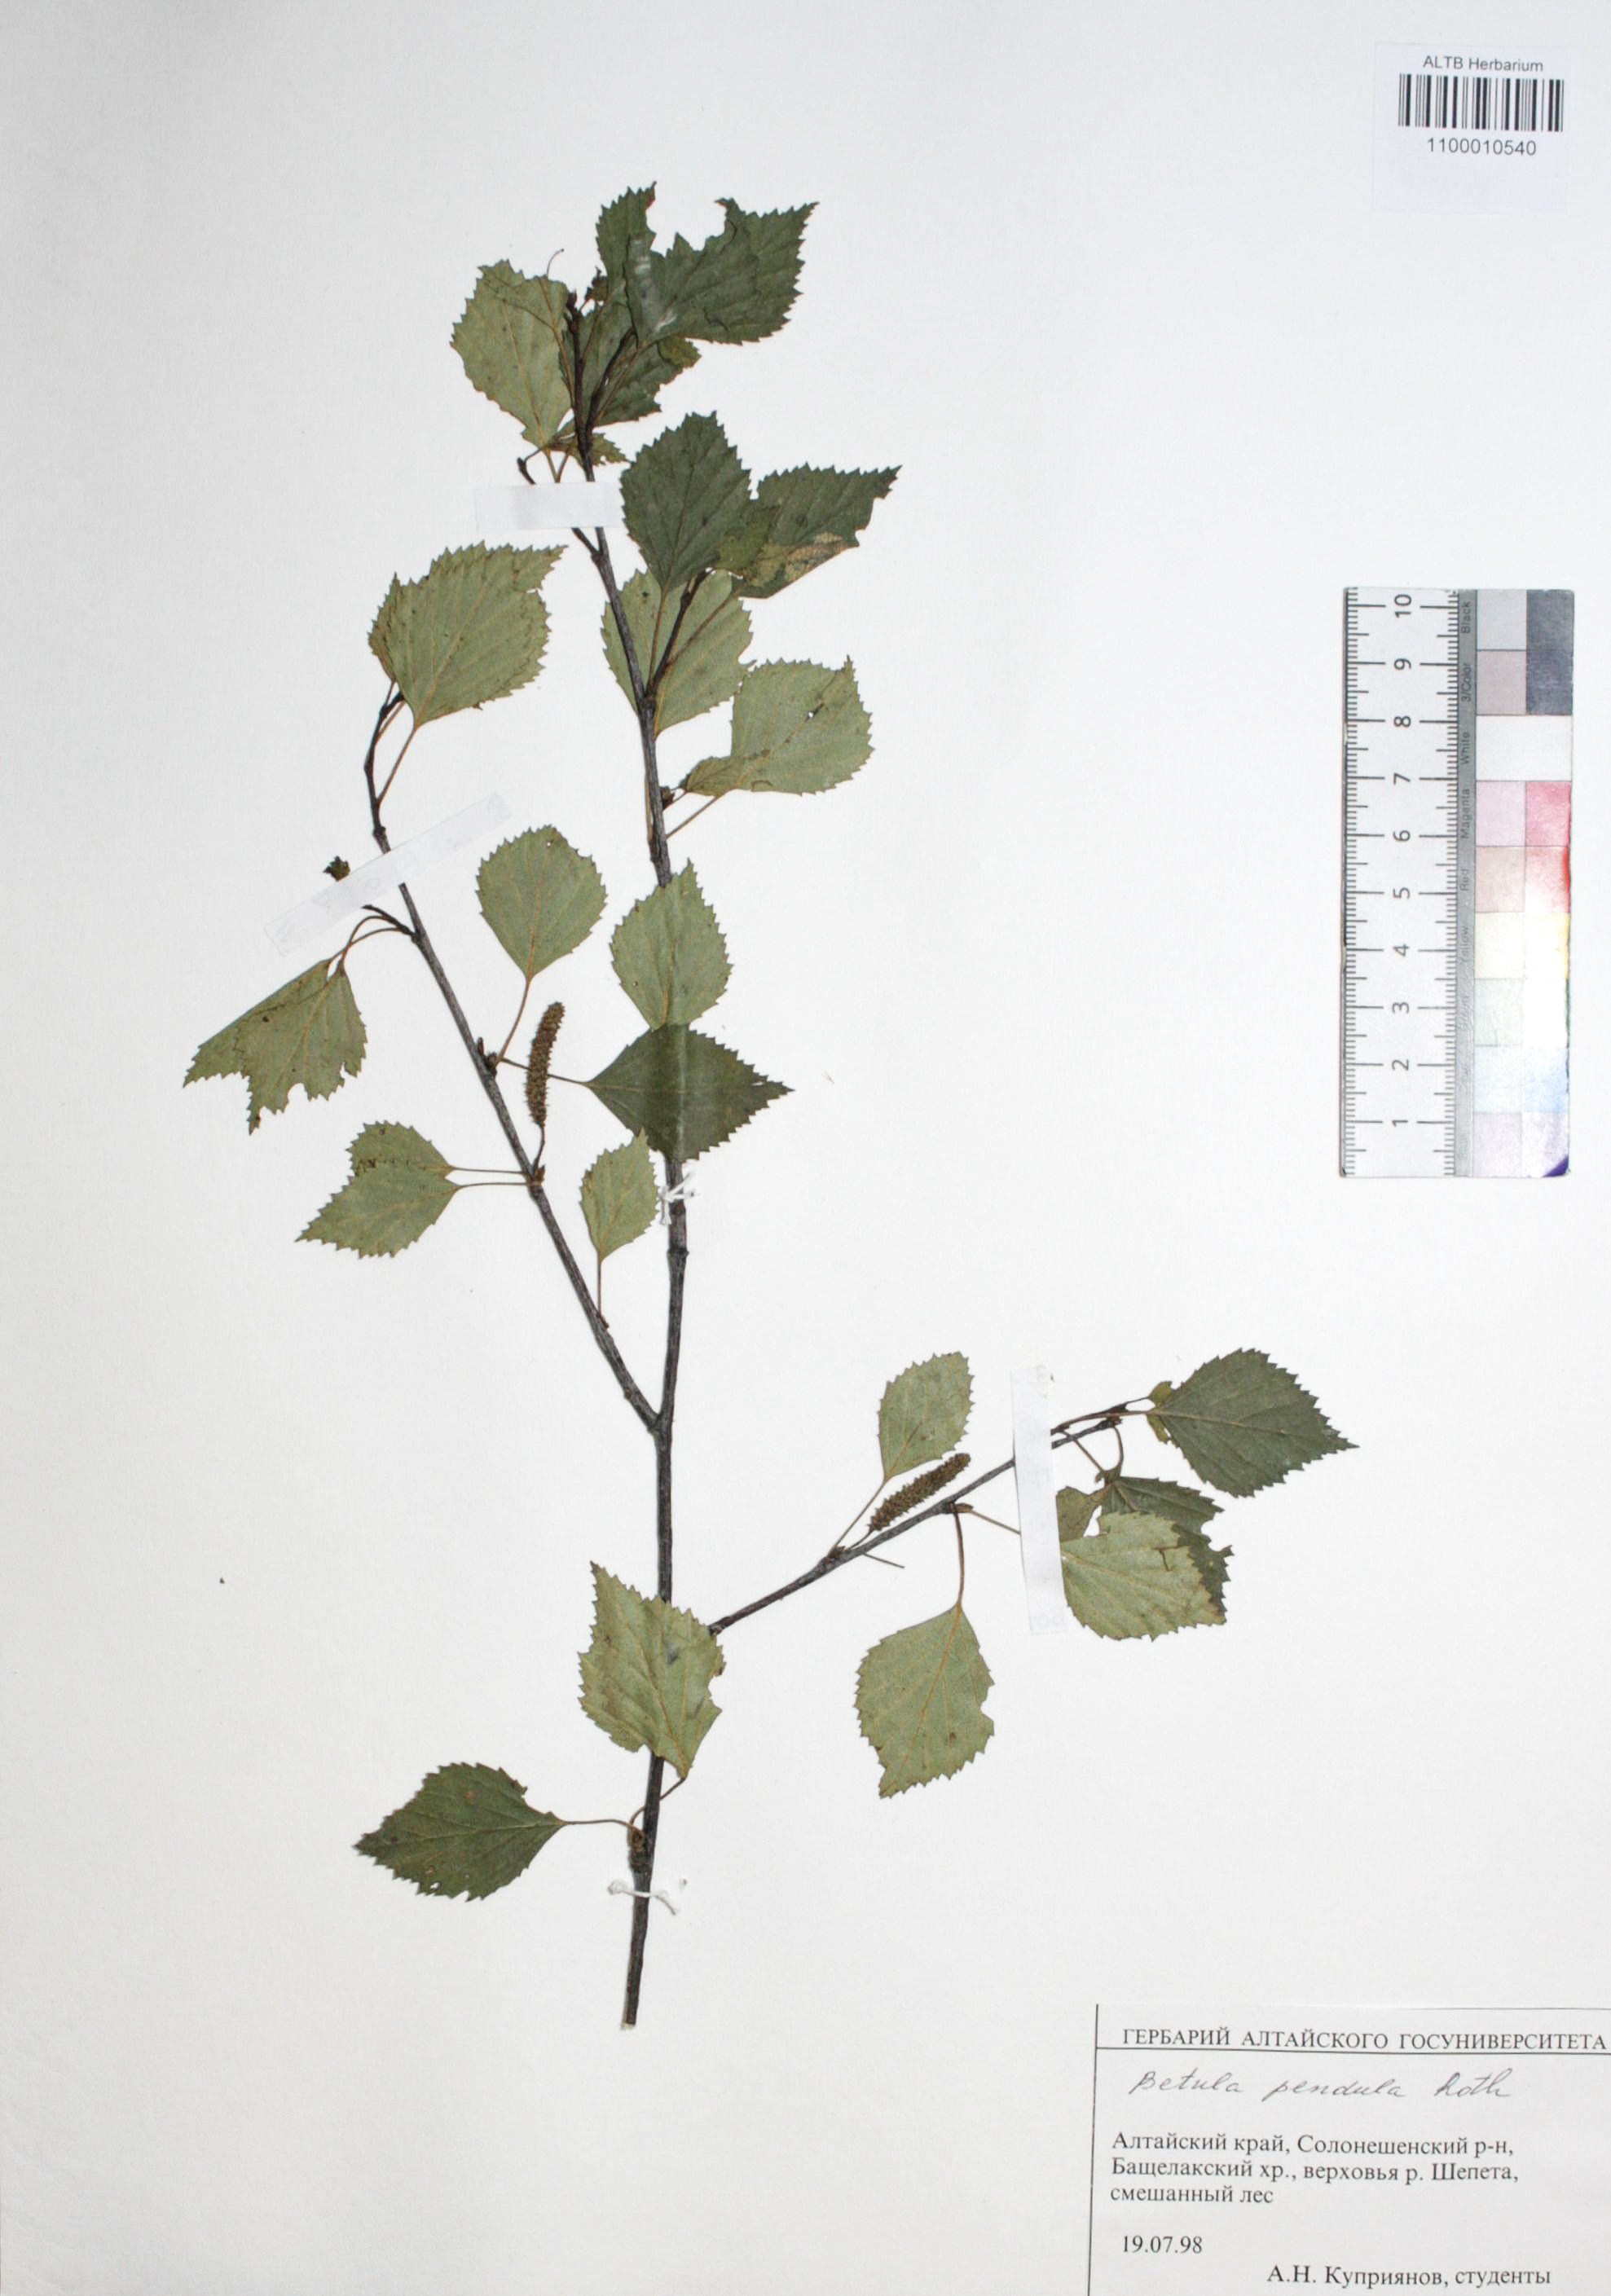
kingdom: Plantae
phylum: Tracheophyta
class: Magnoliopsida
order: Fagales
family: Betulaceae
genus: Betula
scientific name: Betula pendula
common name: Silver birch
